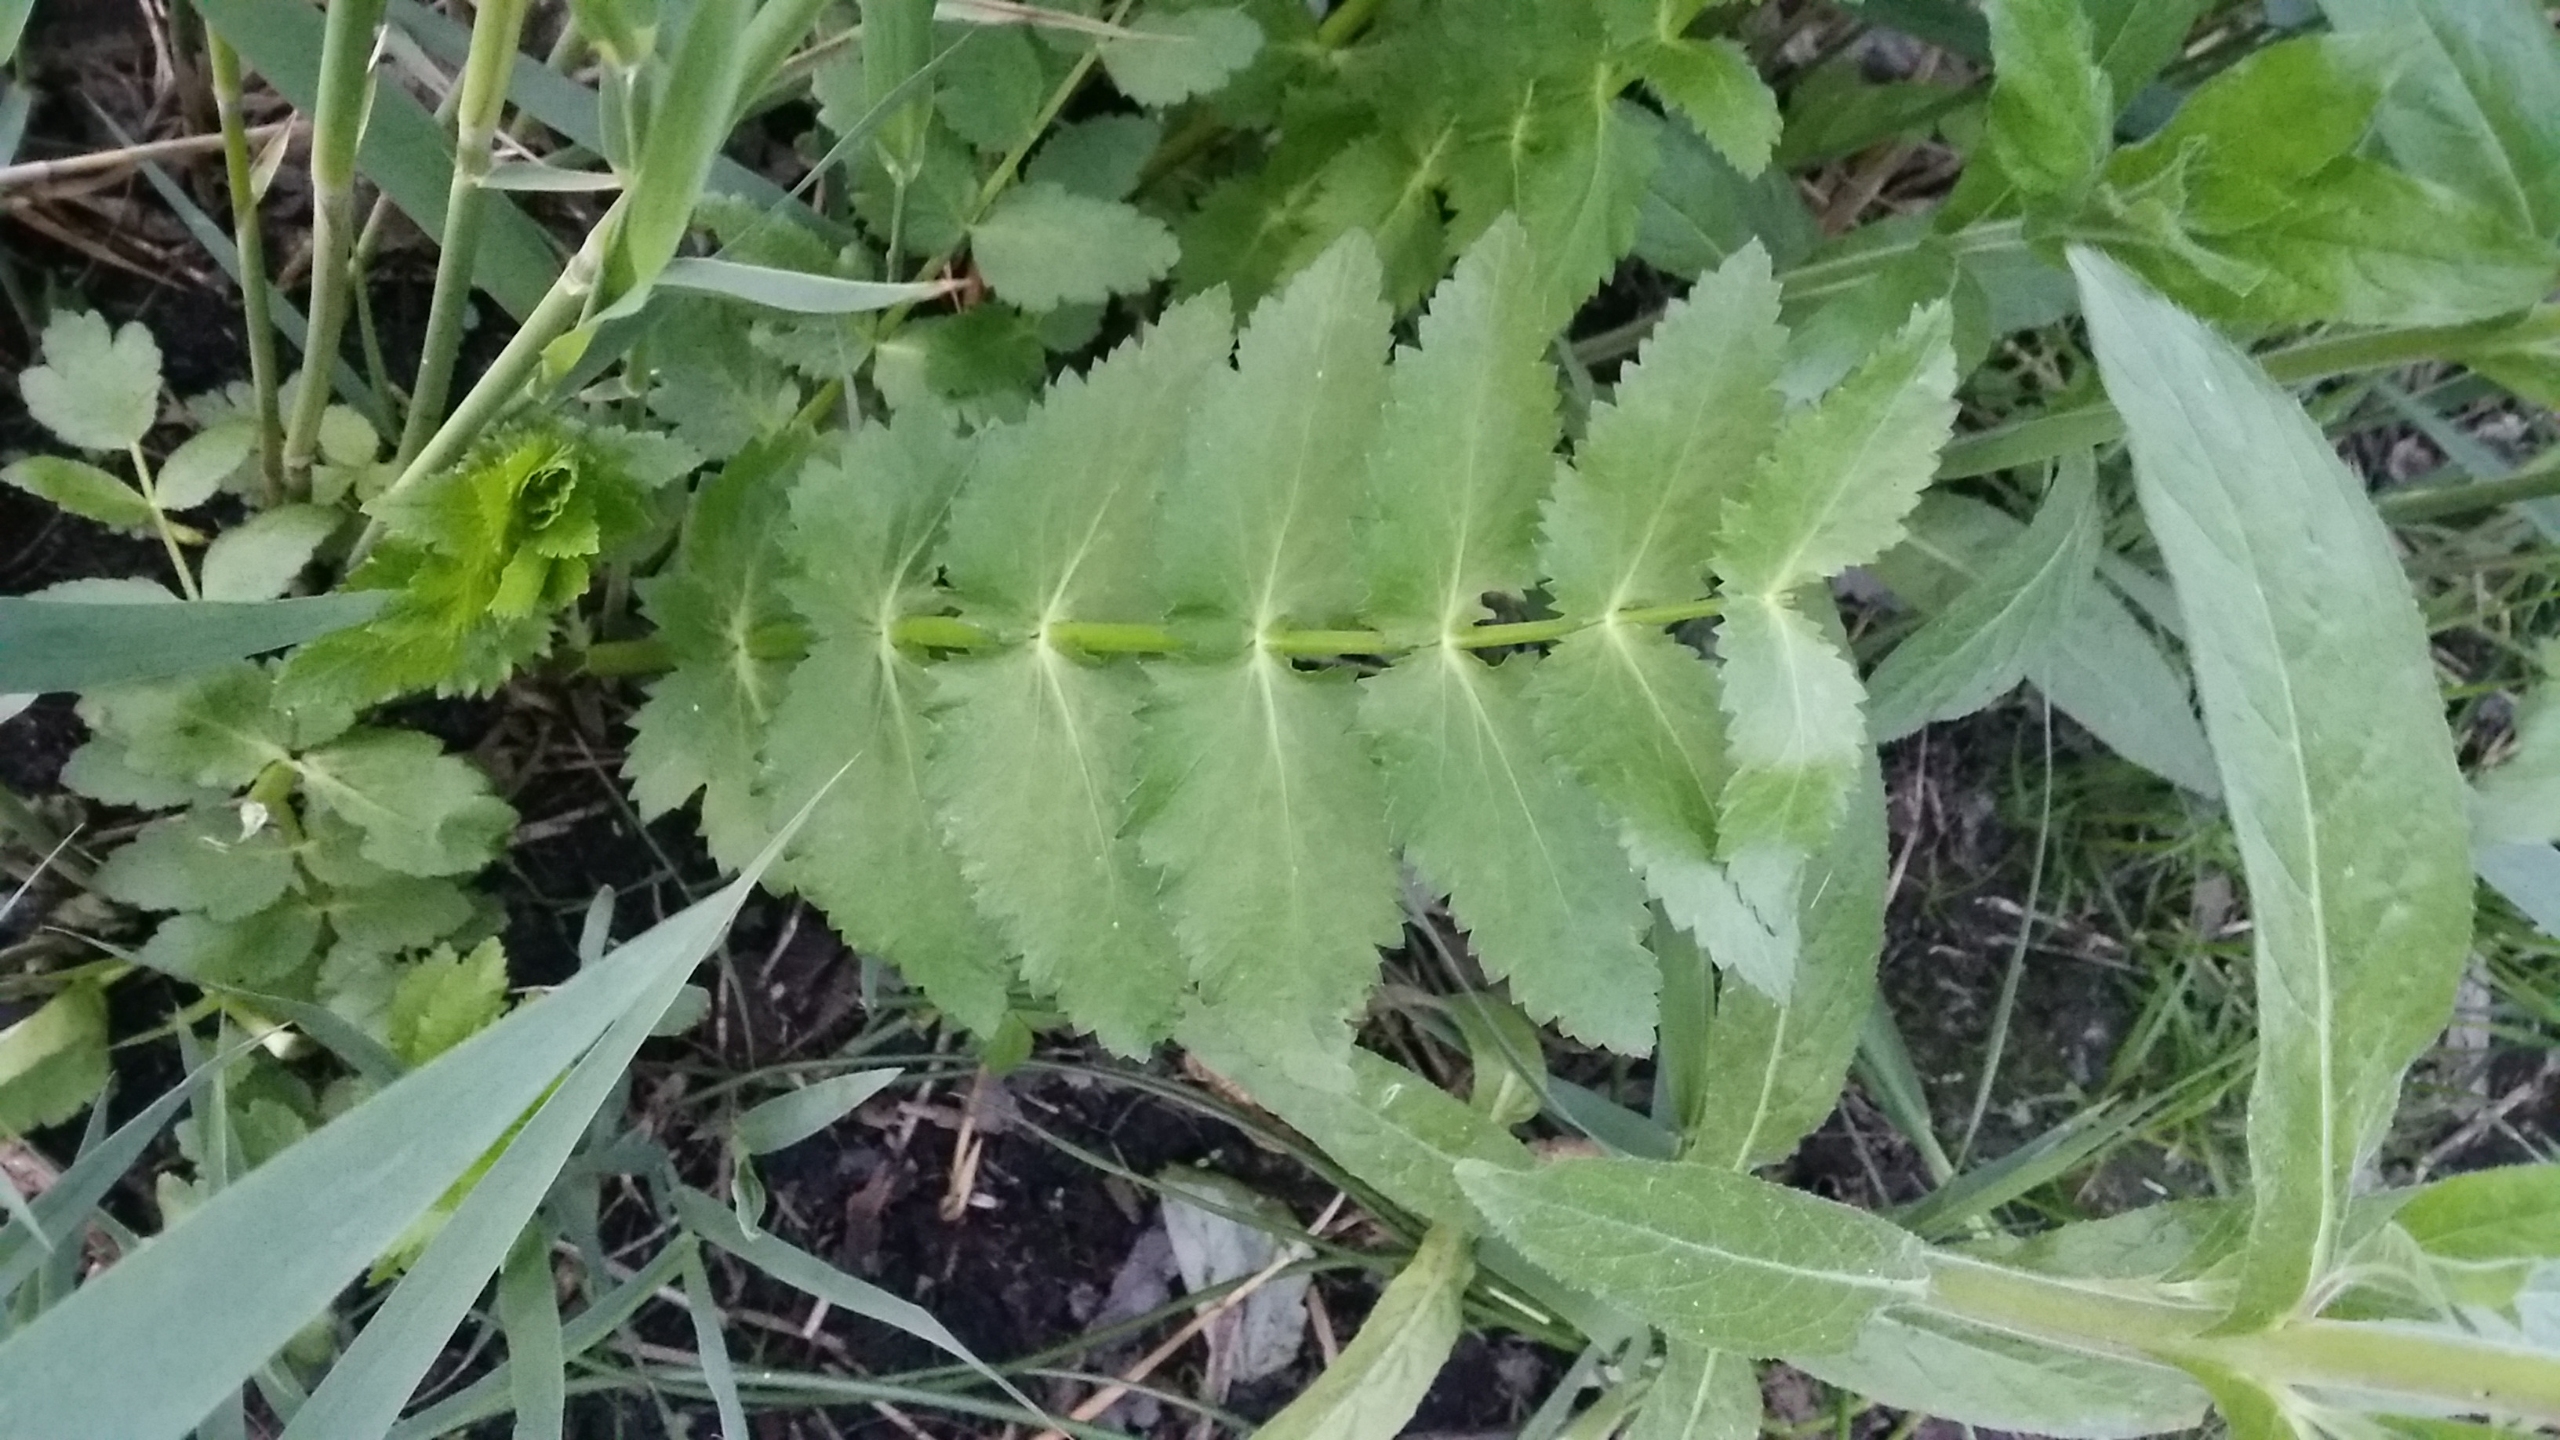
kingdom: Plantae
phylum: Tracheophyta
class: Magnoliopsida
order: Apiales
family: Apiaceae
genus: Berula
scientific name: Berula erecta
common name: Sideskærm
